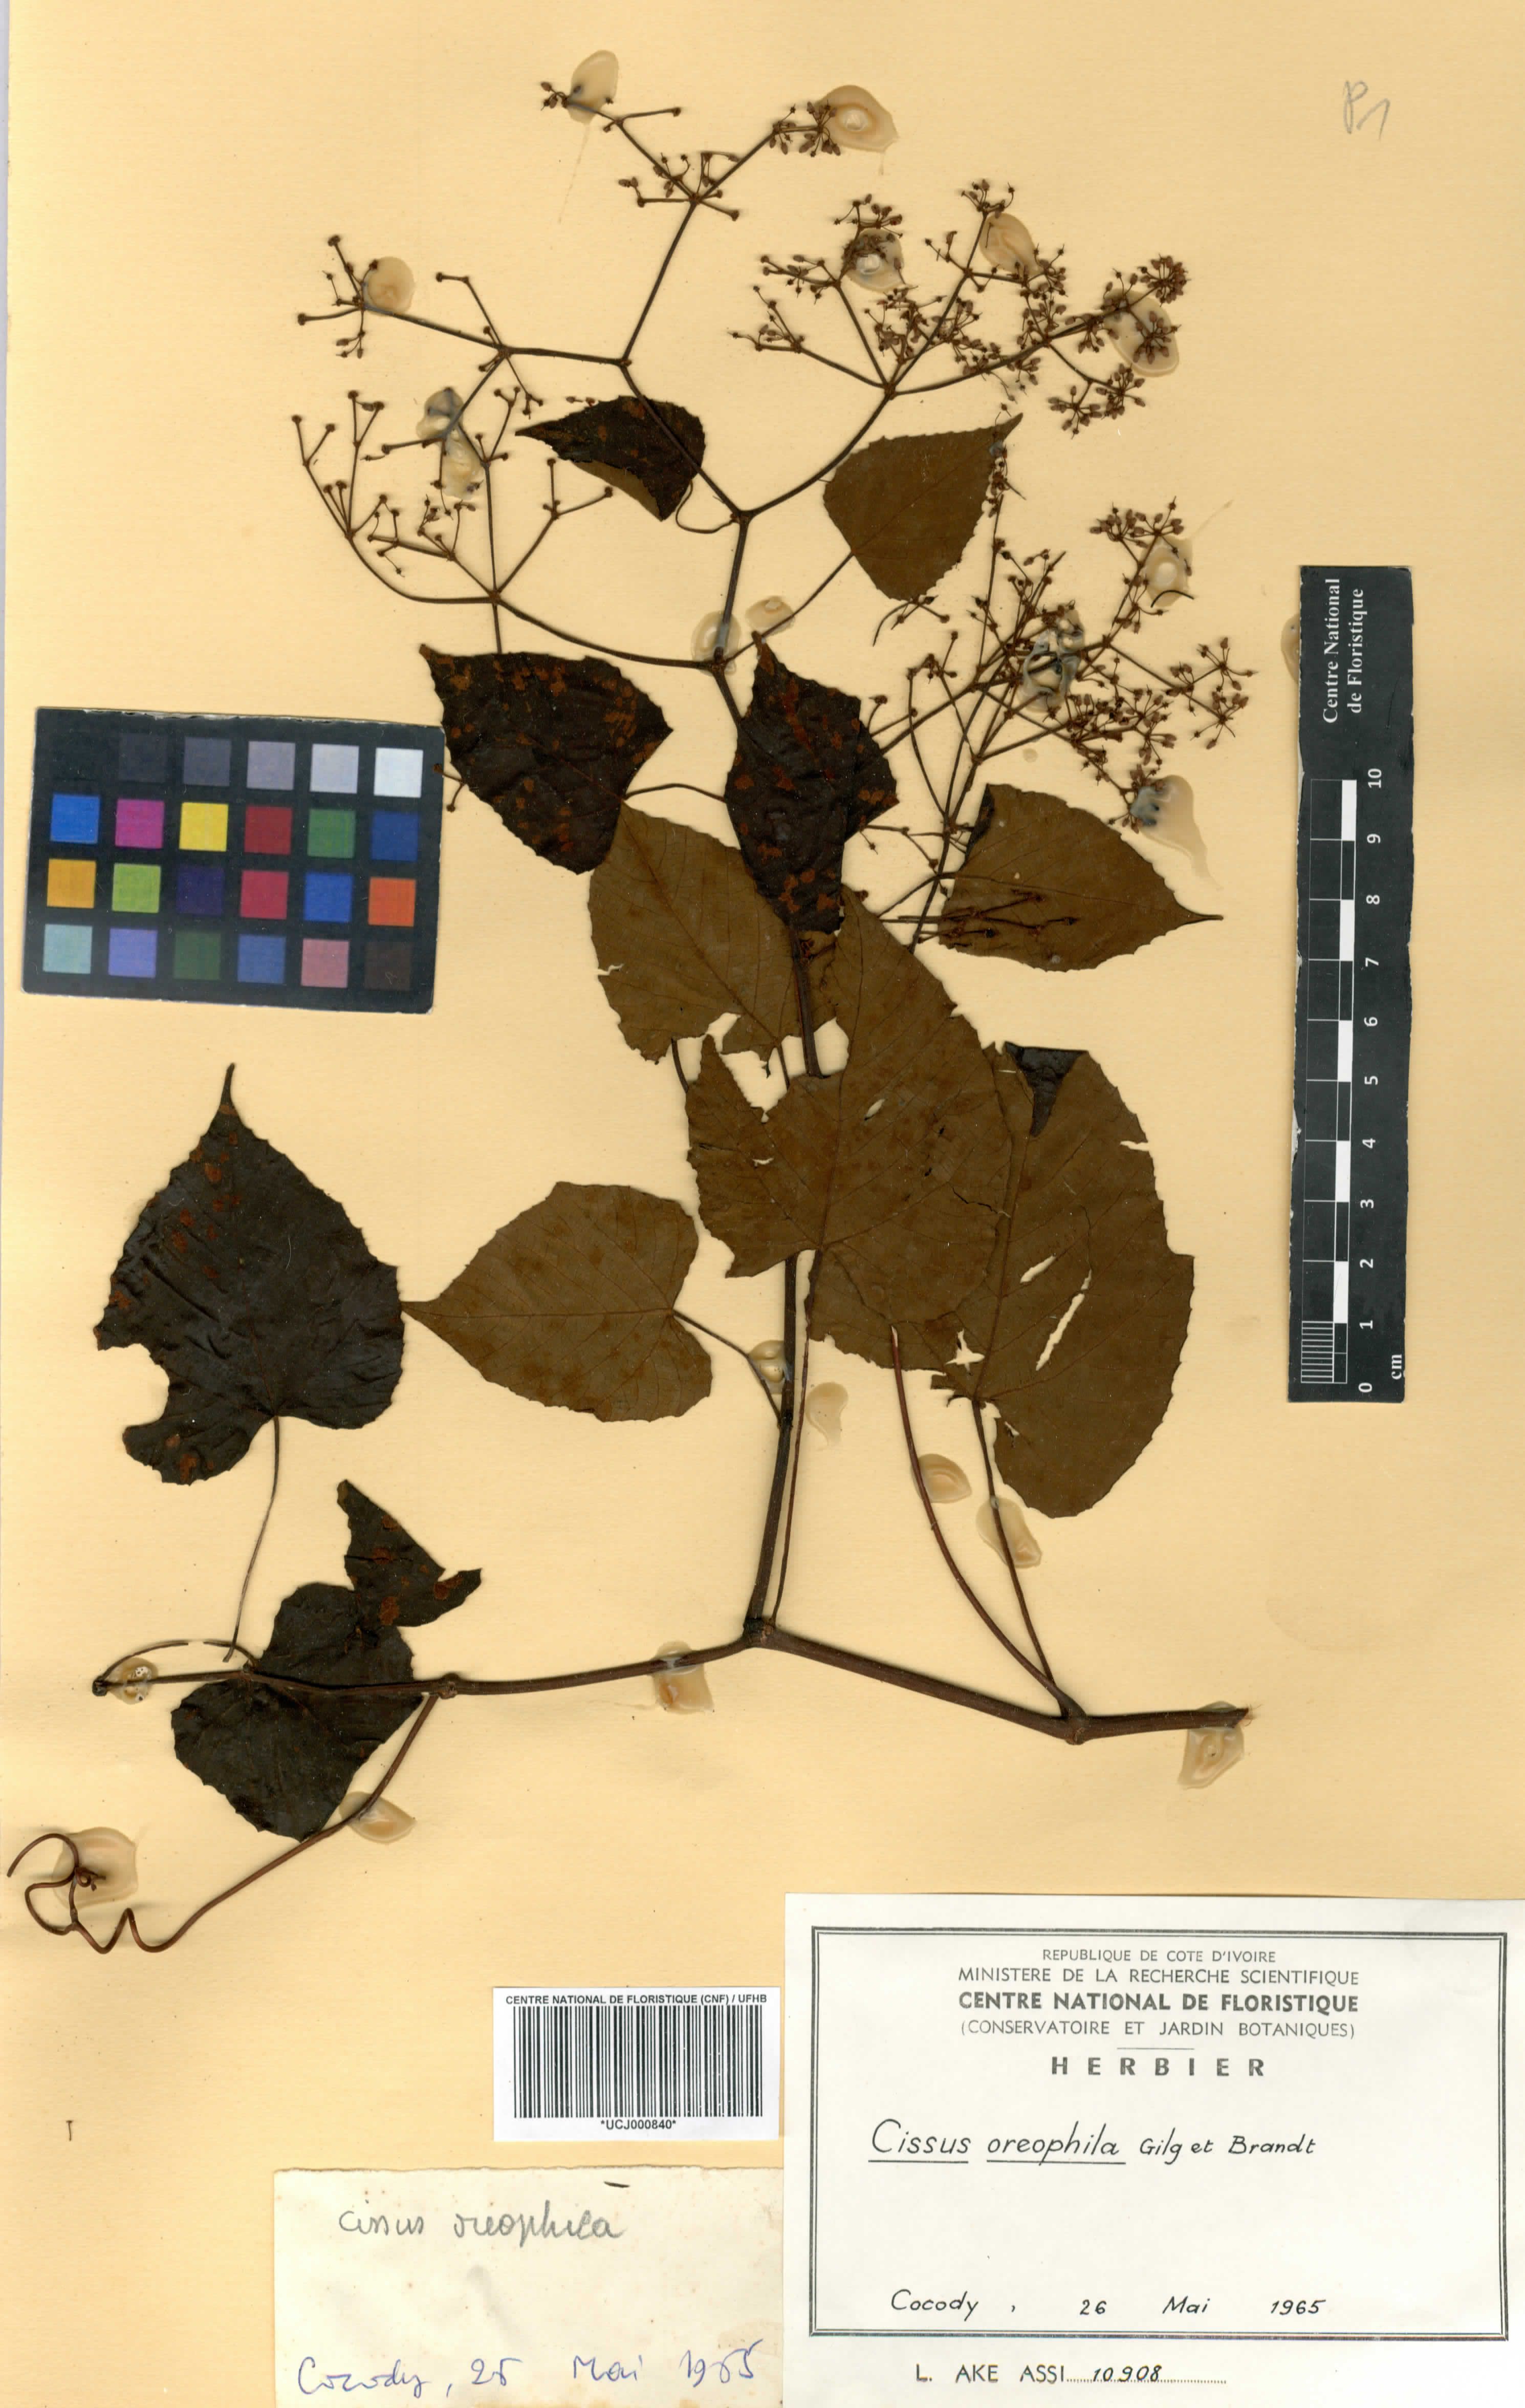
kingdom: Plantae
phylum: Tracheophyta
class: Magnoliopsida
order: Vitales
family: Vitaceae
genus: Cissus
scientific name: Cissus oreophila
